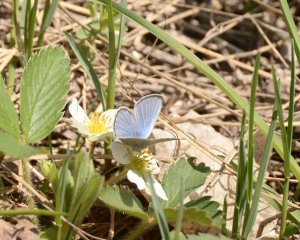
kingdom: Animalia
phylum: Arthropoda
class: Insecta
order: Lepidoptera
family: Lycaenidae
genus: Glaucopsyche
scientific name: Glaucopsyche lygdamus
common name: Silvery Blue
